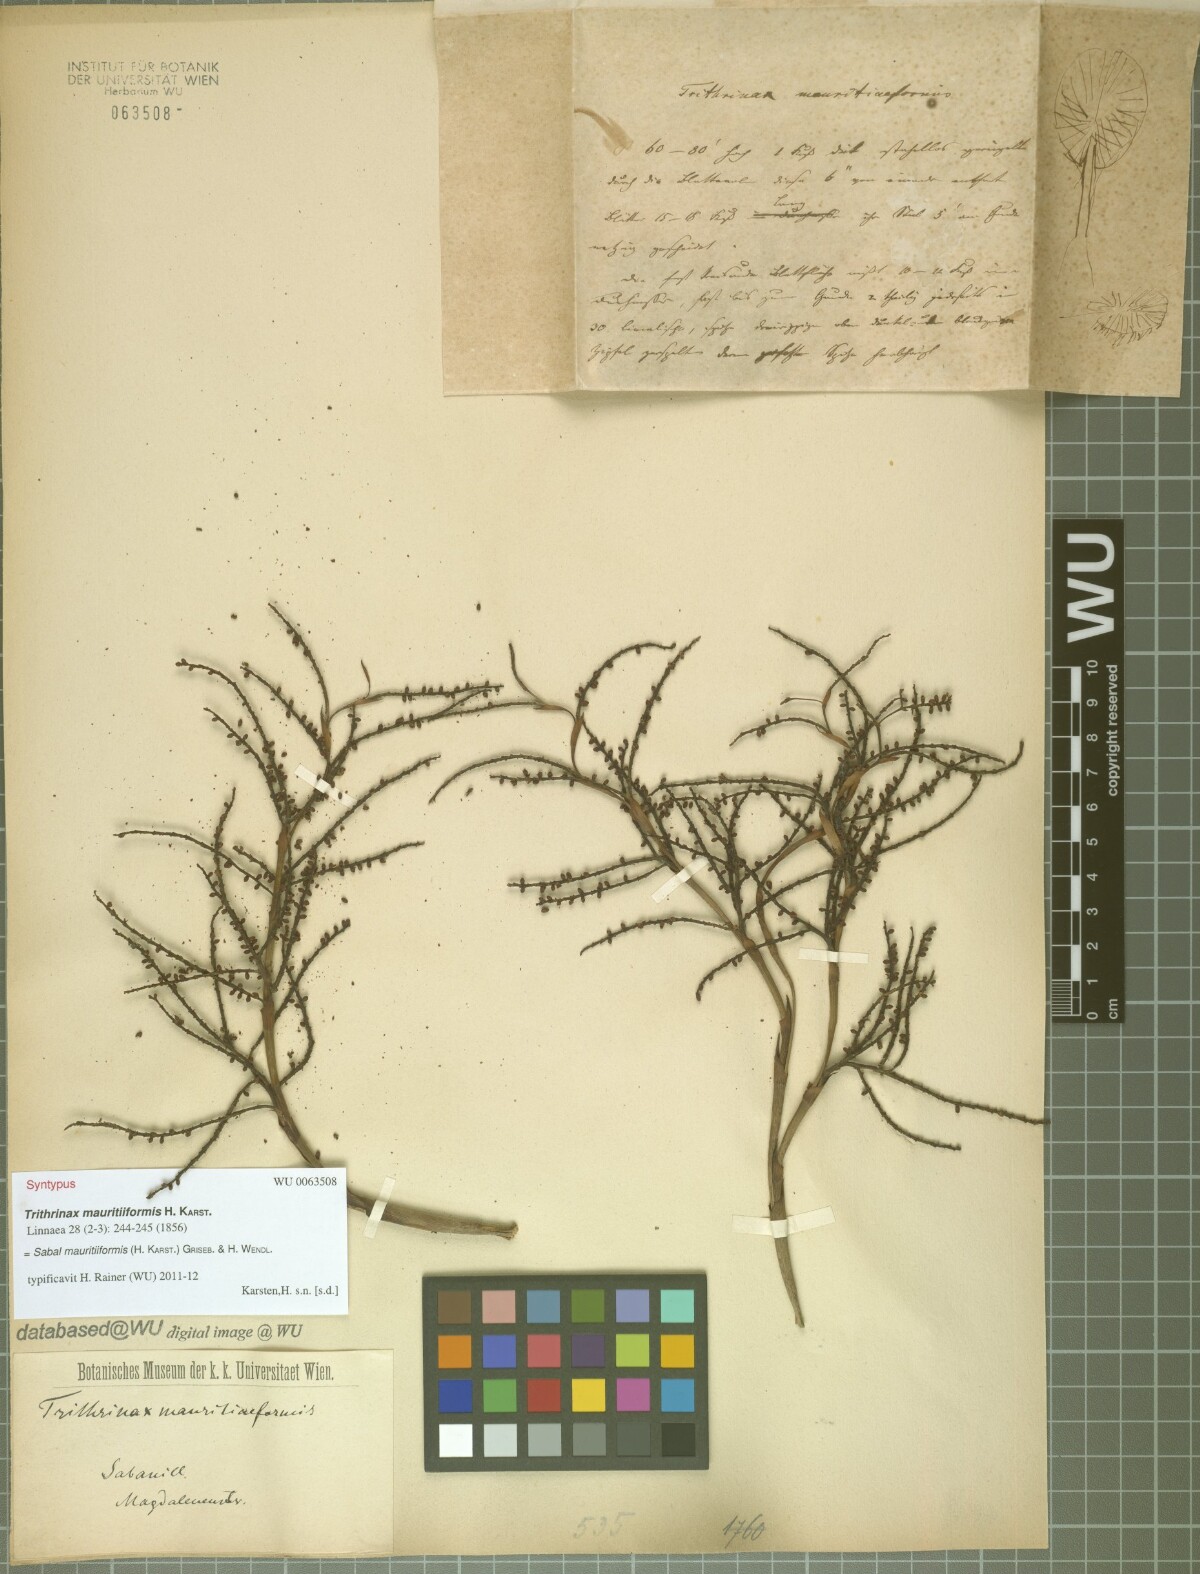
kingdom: Plantae
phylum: Tracheophyta
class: Liliopsida
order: Arecales
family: Arecaceae
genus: Sabal
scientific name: Sabal mauritiiformis
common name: Trinidad palm
